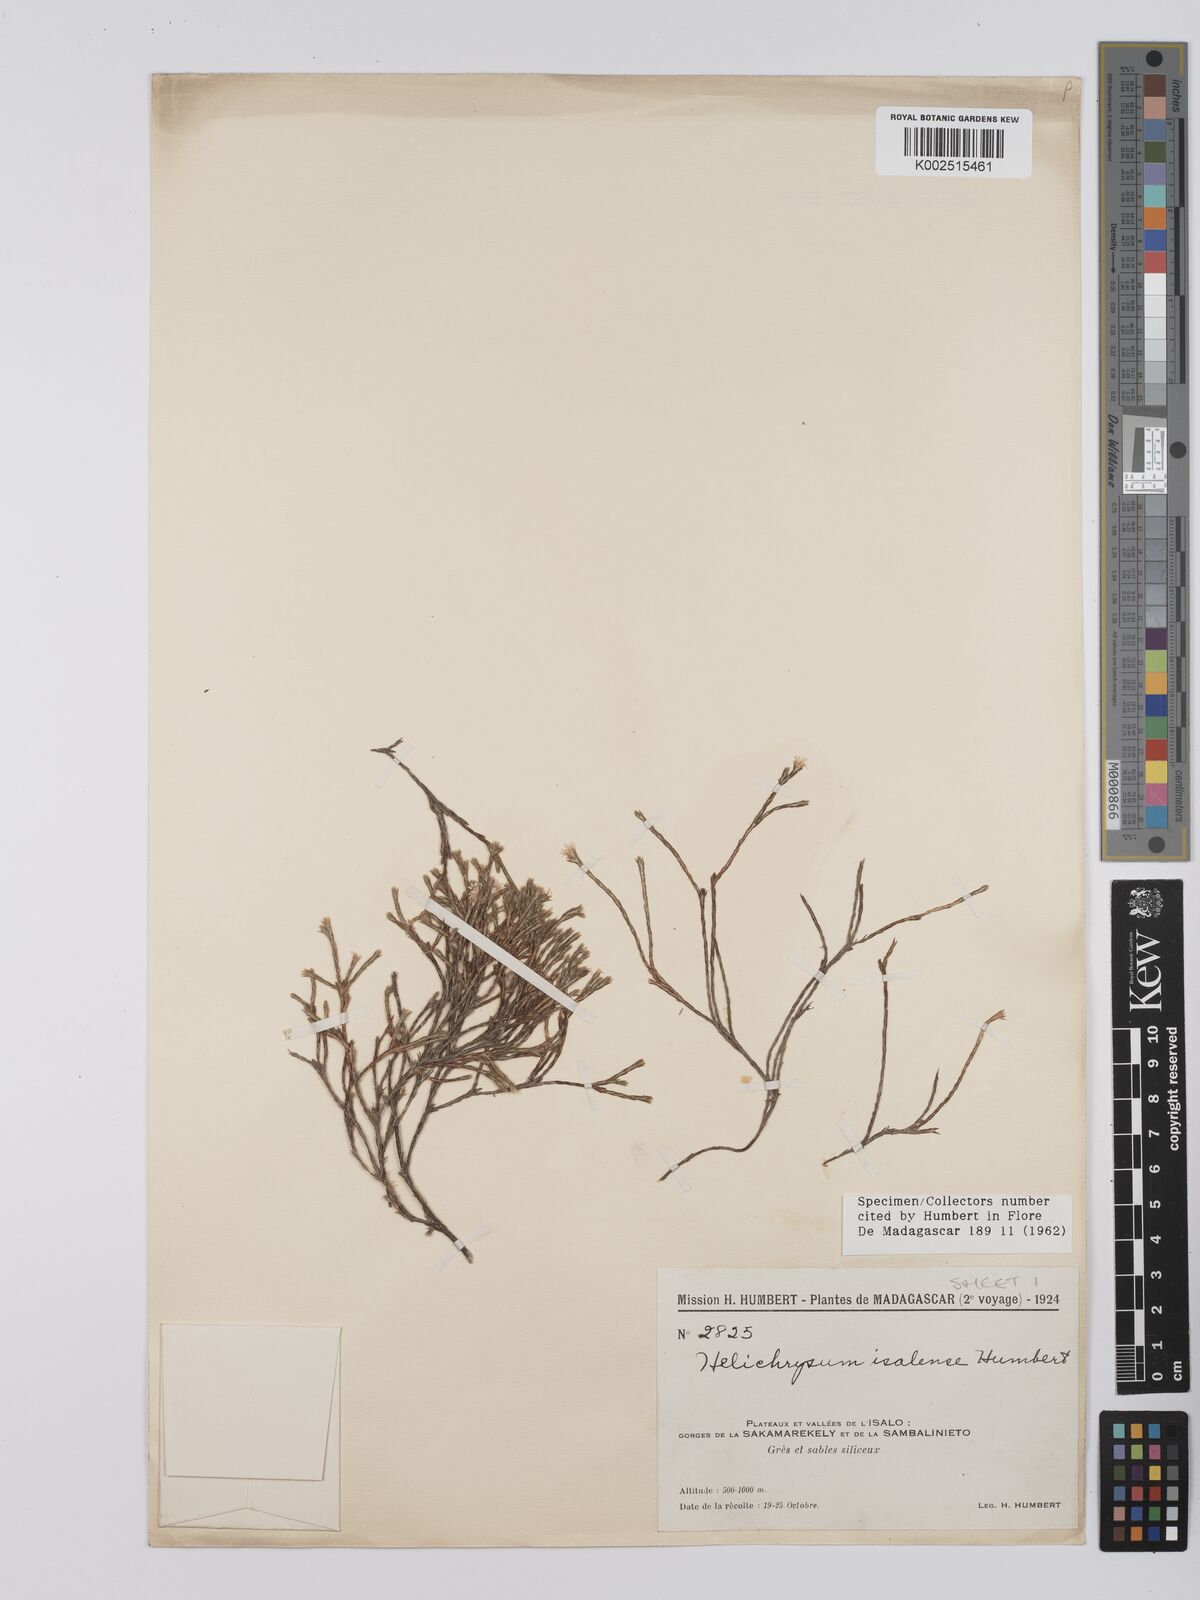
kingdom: Plantae
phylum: Tracheophyta
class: Magnoliopsida
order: Asterales
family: Asteraceae
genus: Helichrysum
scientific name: Helichrysum isalense
